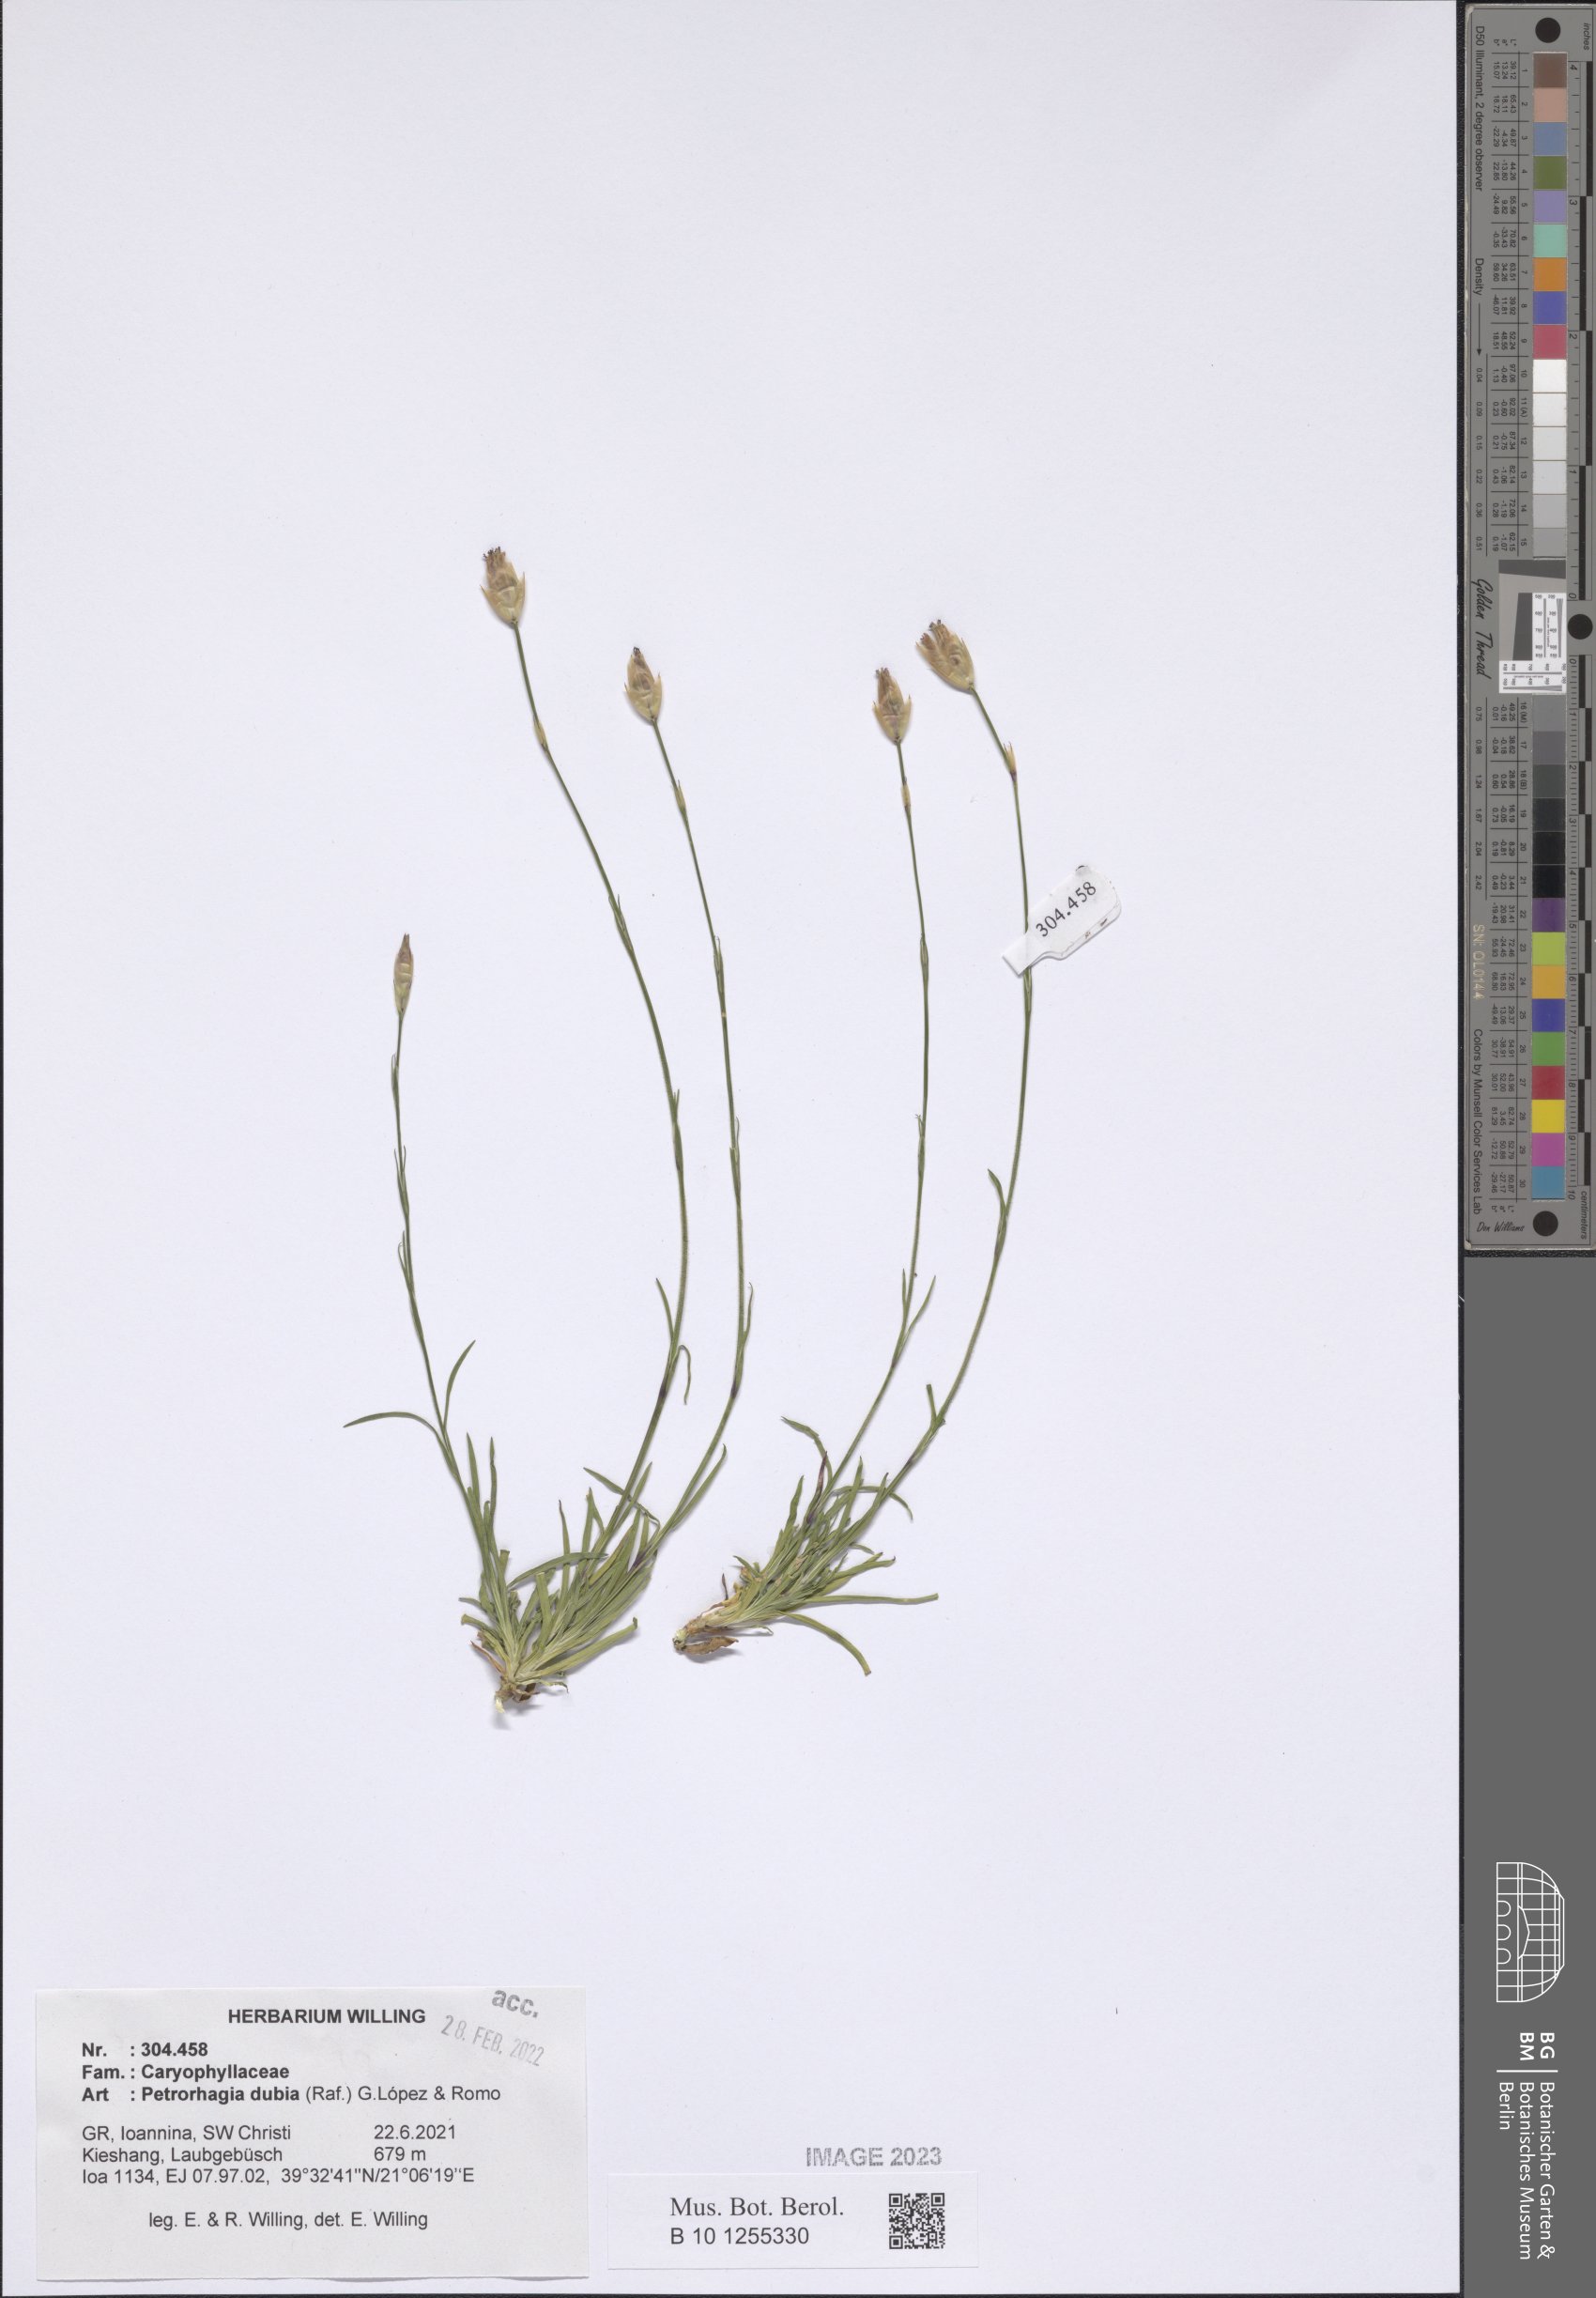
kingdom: Plantae
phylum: Tracheophyta
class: Magnoliopsida
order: Caryophyllales
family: Caryophyllaceae
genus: Petrorhagia
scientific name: Petrorhagia dubia
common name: Hairypink
